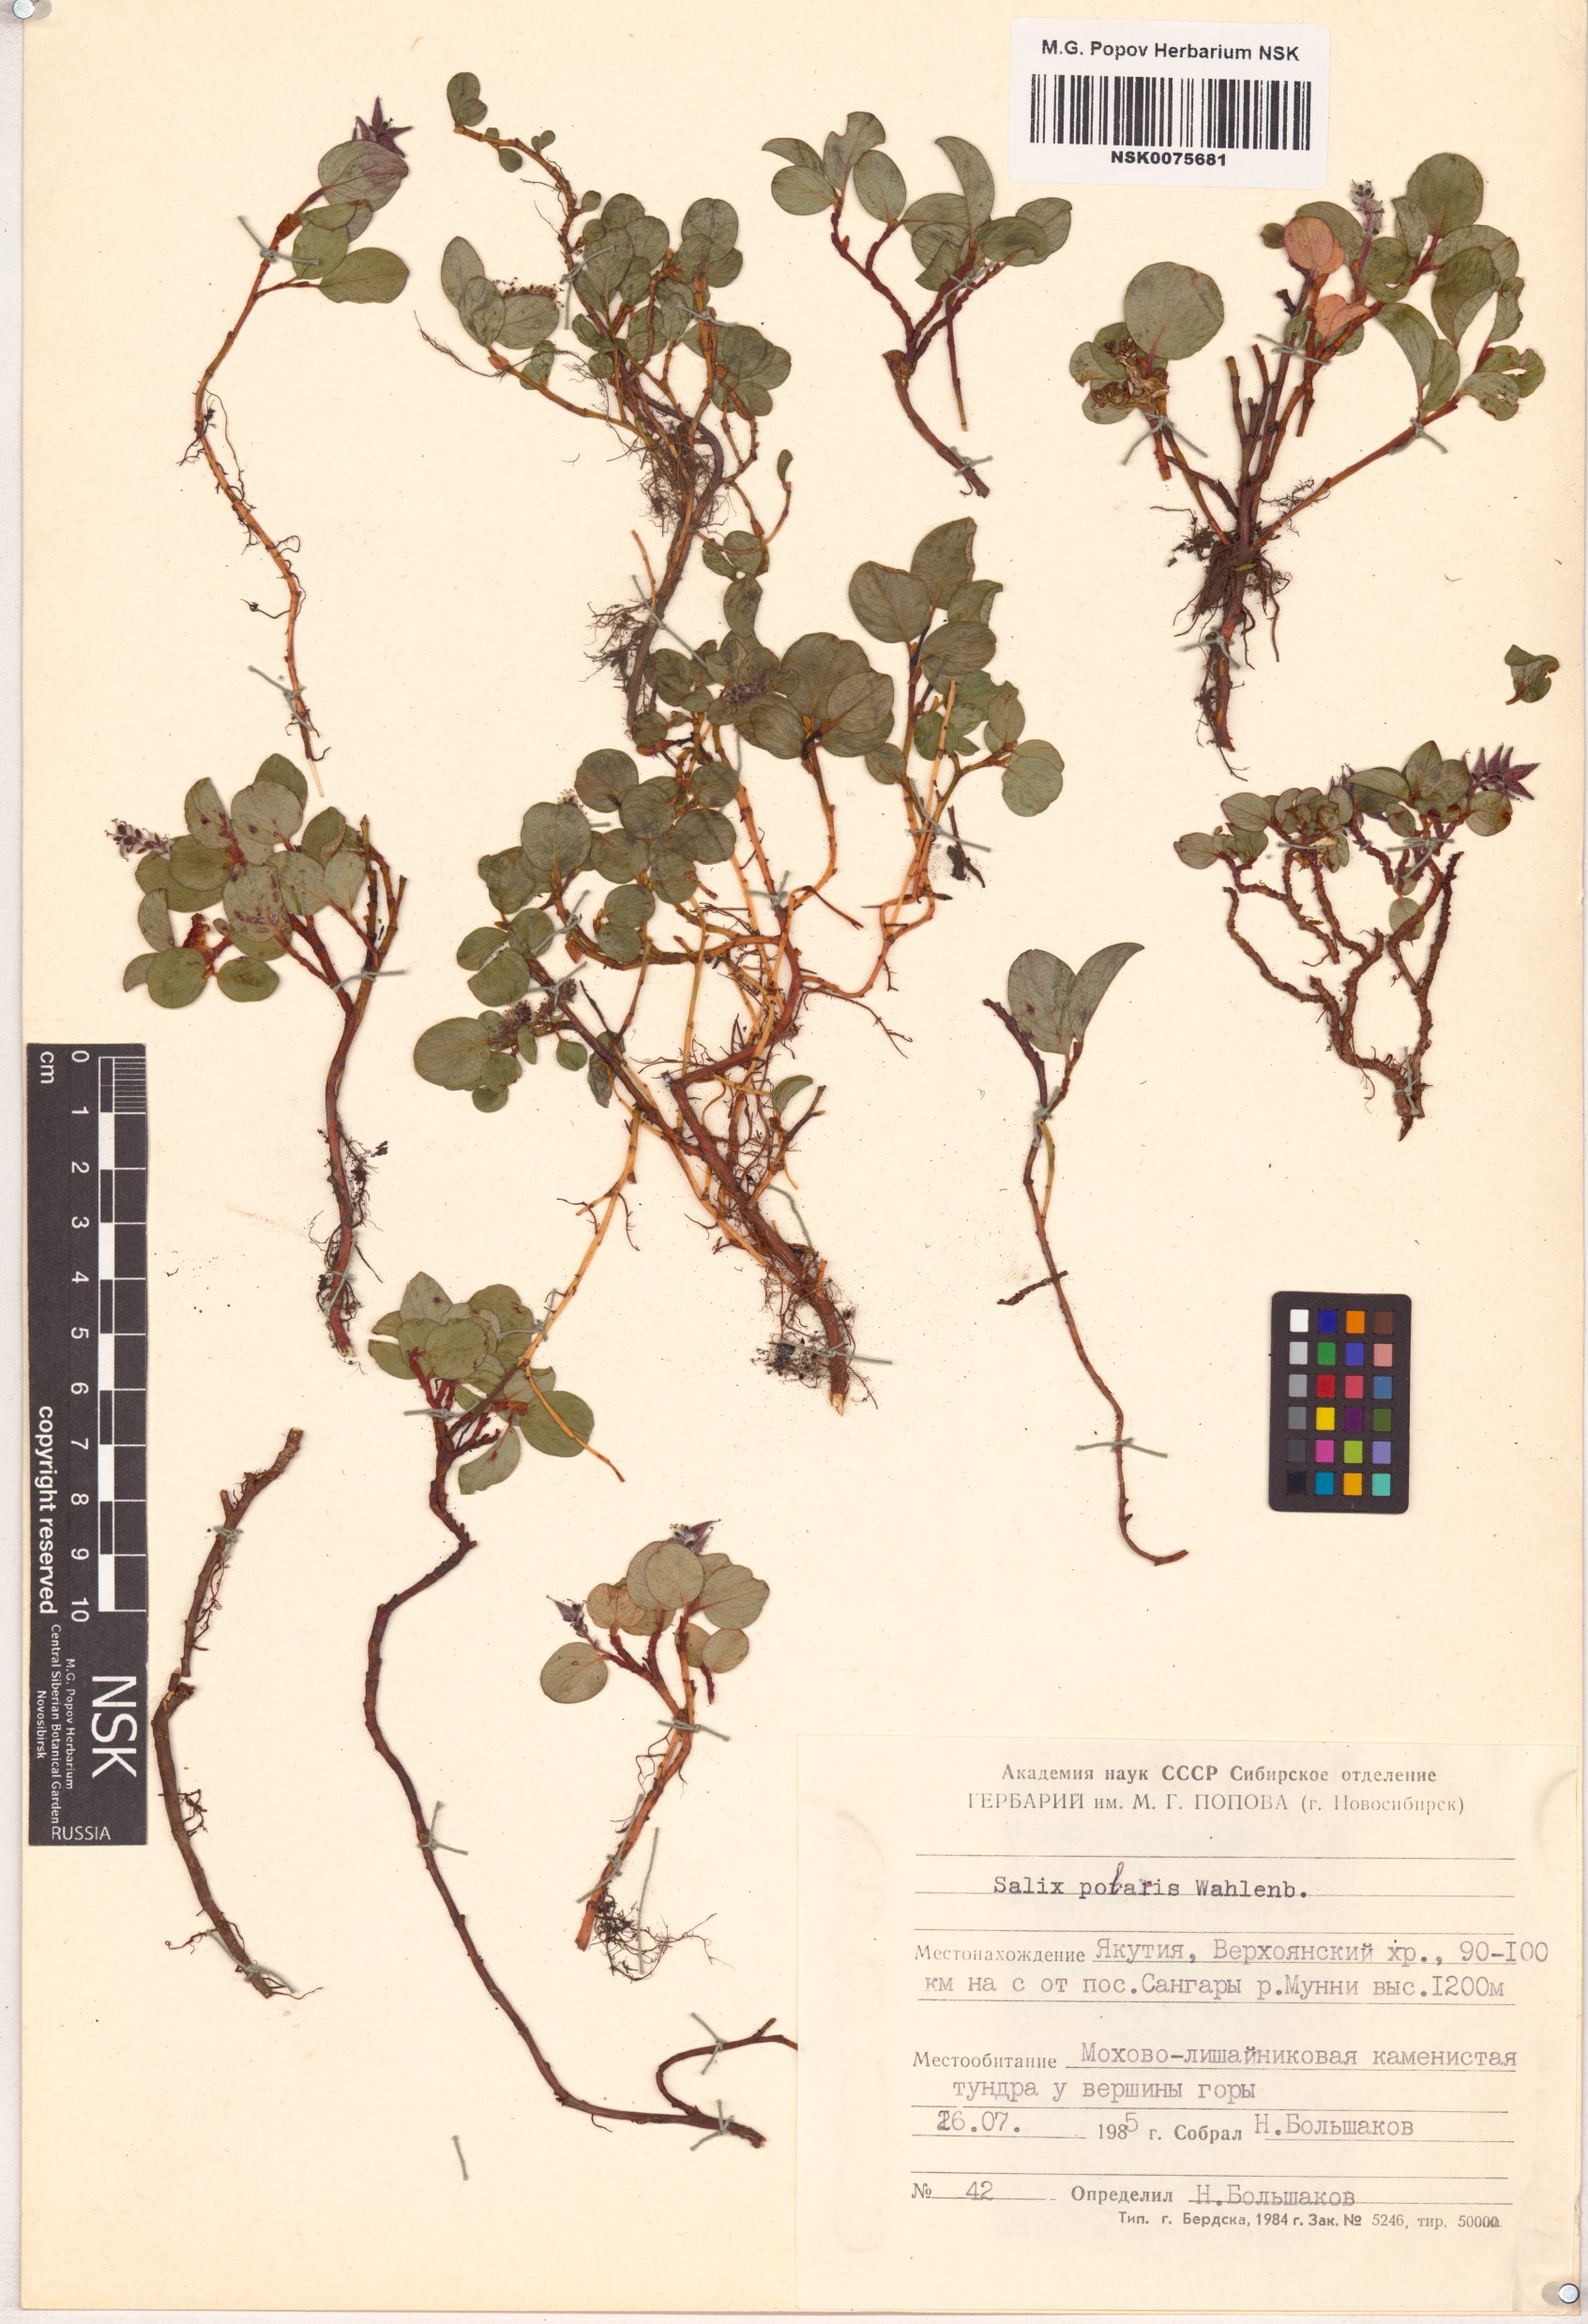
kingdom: Plantae
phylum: Tracheophyta
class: Magnoliopsida
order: Malpighiales
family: Salicaceae
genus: Salix
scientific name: Salix polaris
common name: Polar willow
